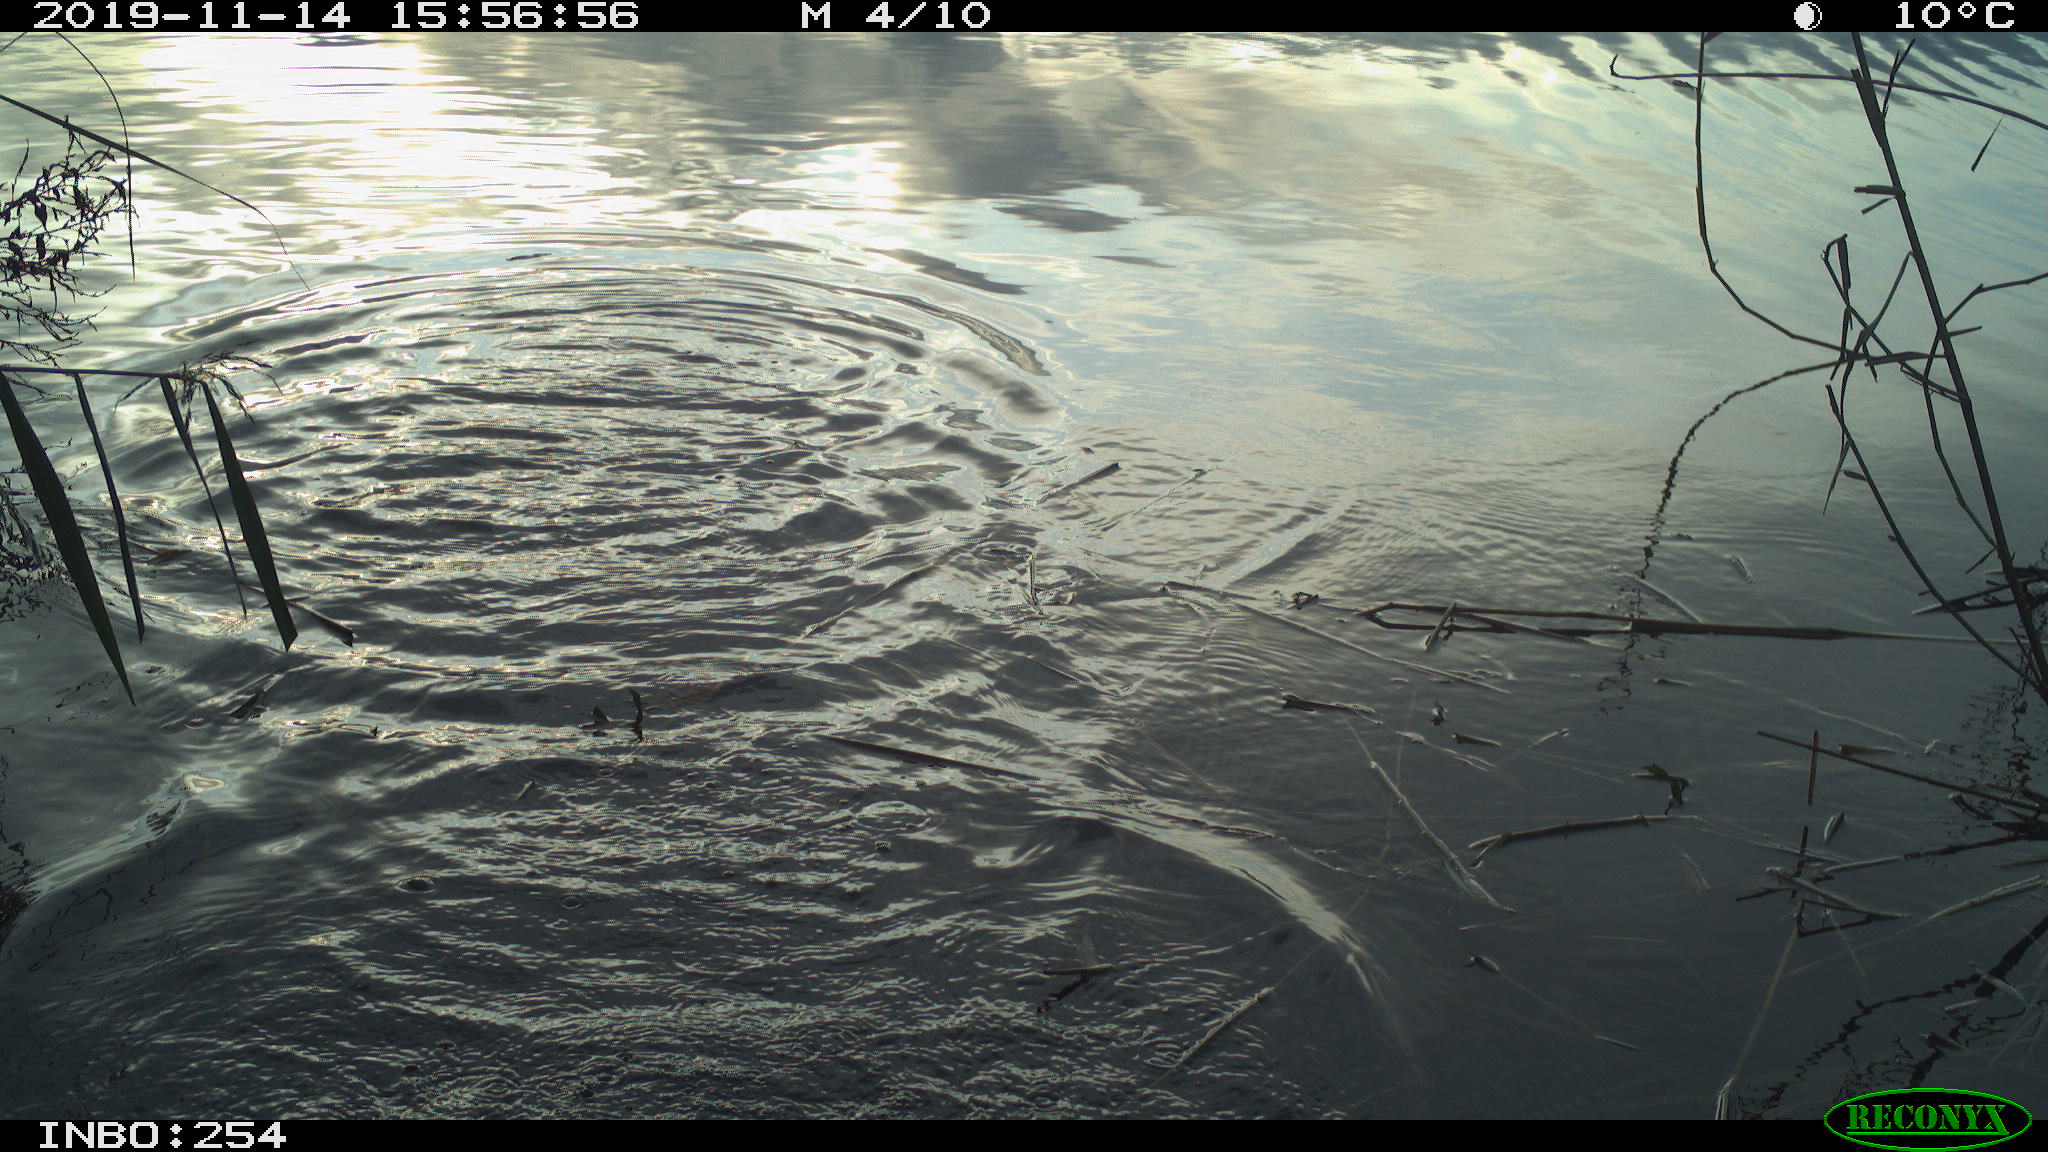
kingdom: Animalia
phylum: Chordata
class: Aves
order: Gruiformes
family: Rallidae
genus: Gallinula
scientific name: Gallinula chloropus
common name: Common moorhen
